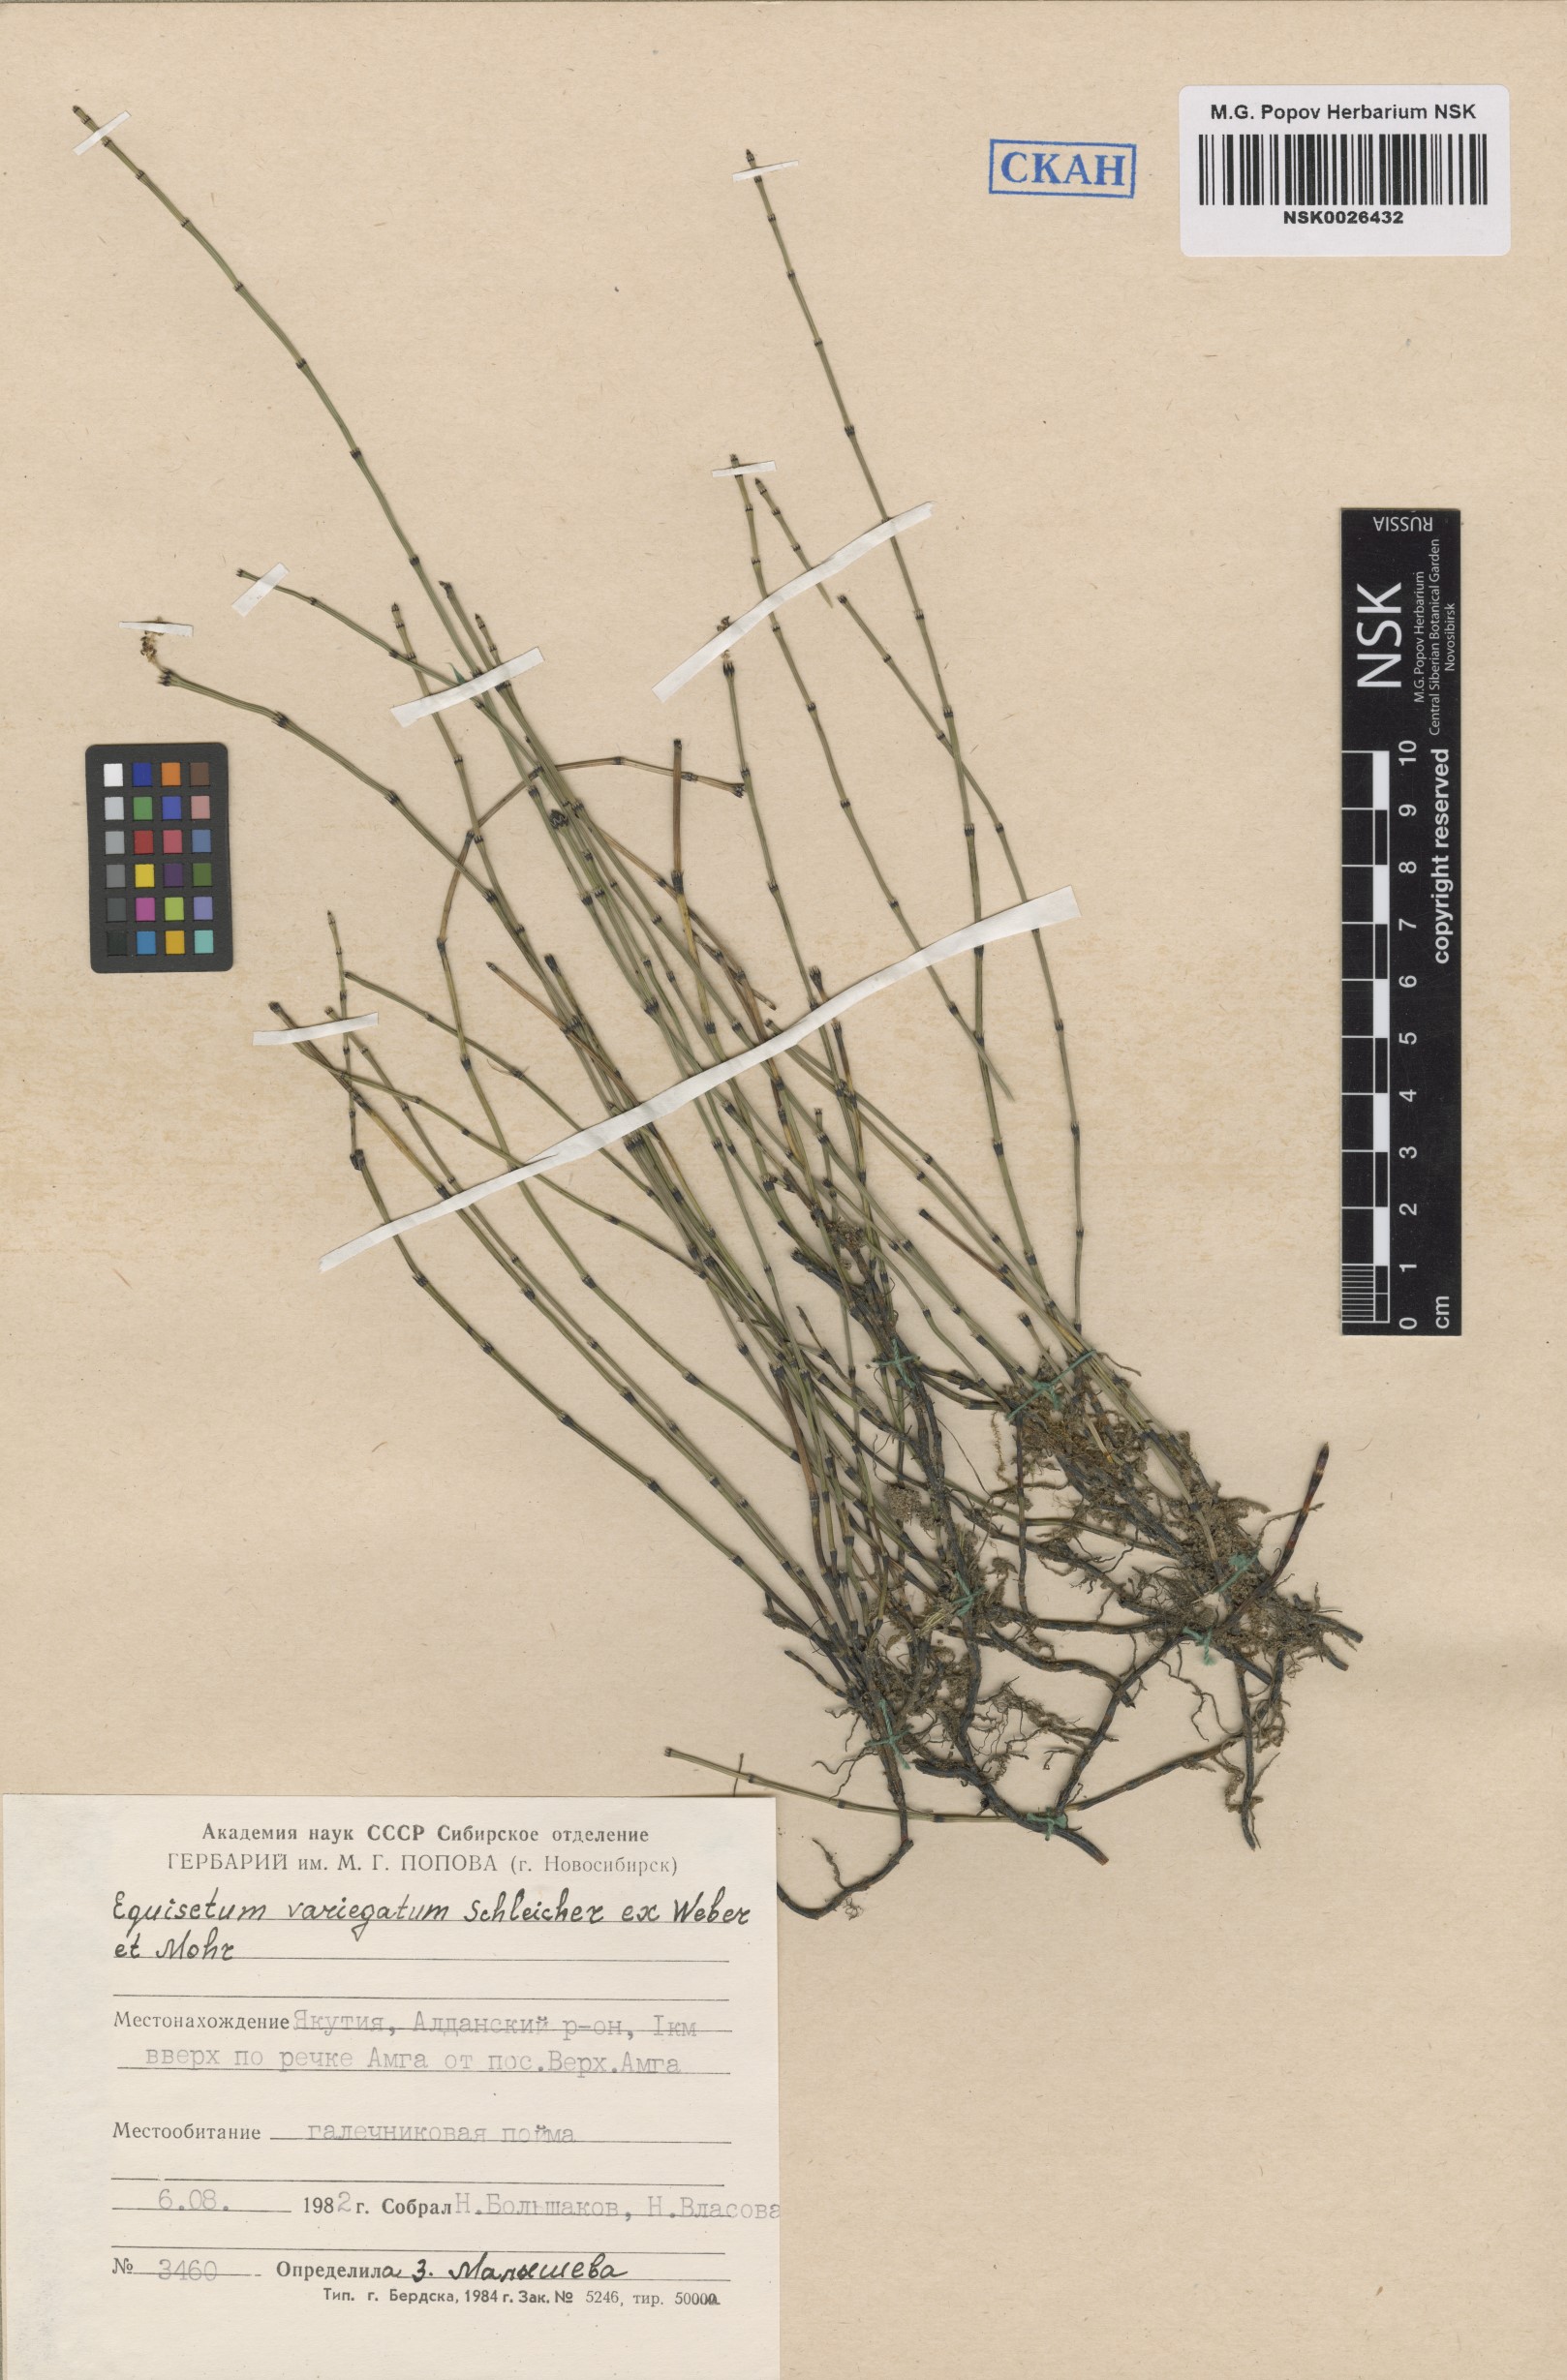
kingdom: Plantae
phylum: Tracheophyta
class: Polypodiopsida
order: Equisetales
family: Equisetaceae
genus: Equisetum
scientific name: Equisetum variegatum
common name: Variegated horsetail
